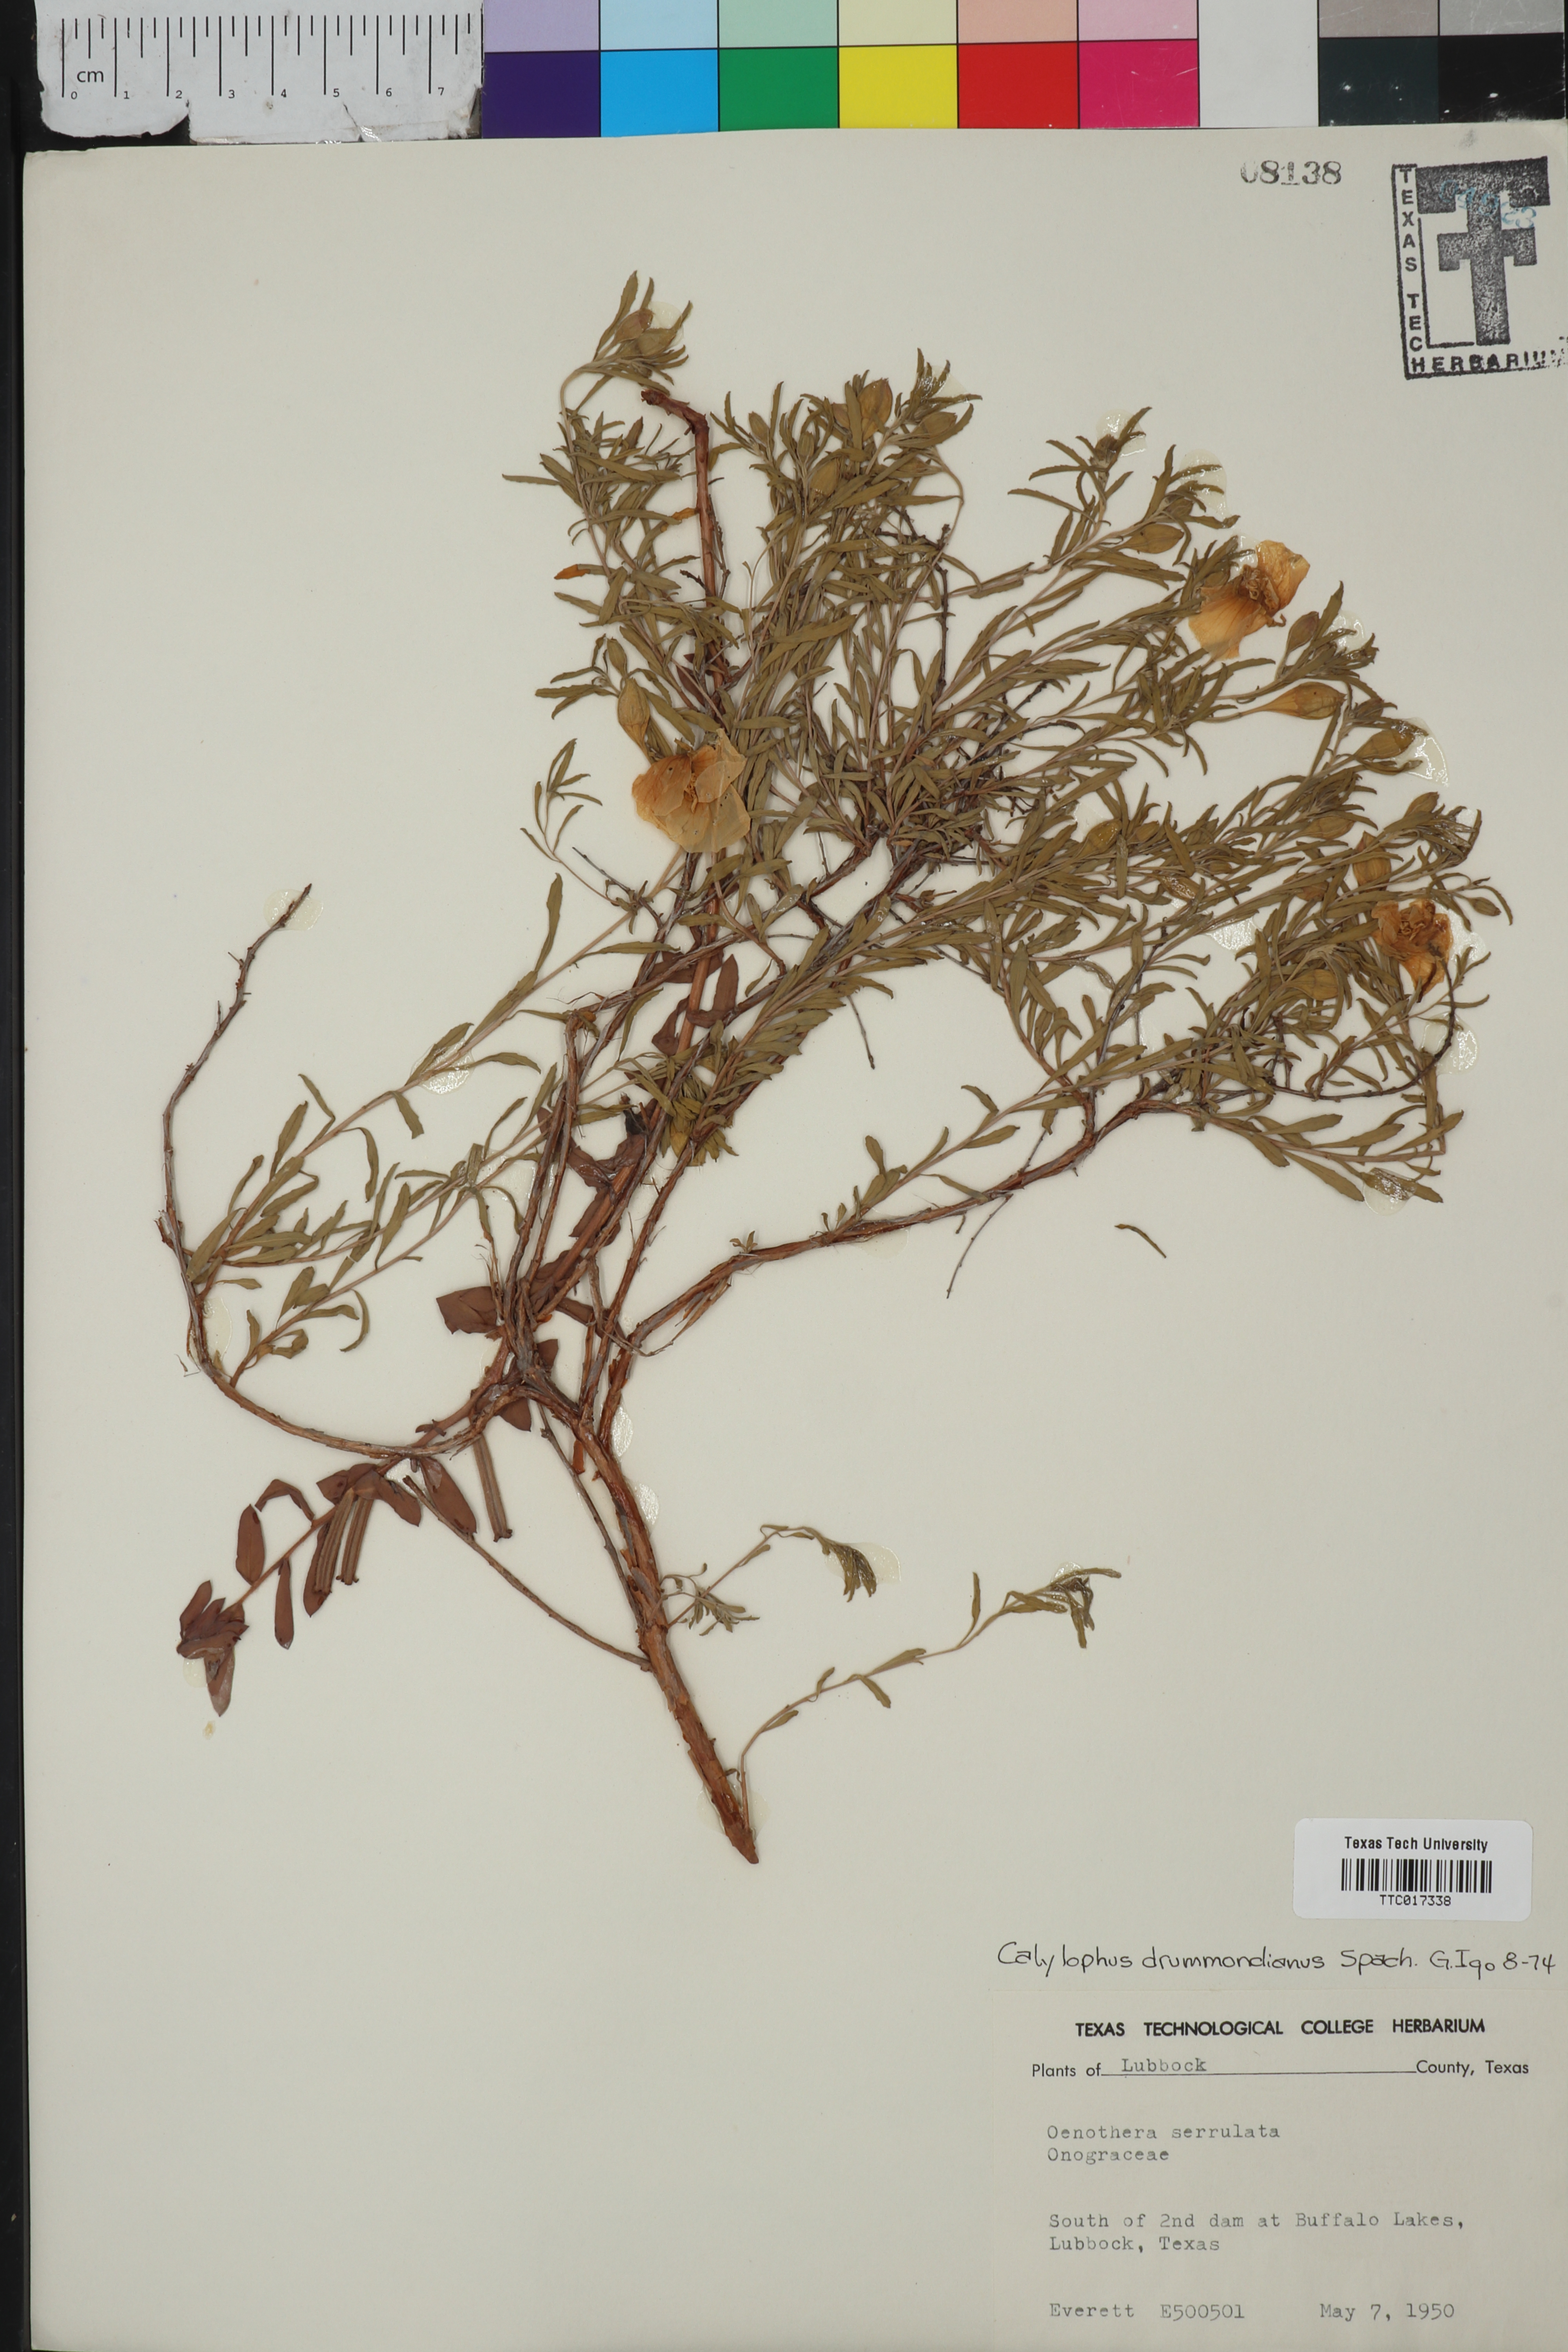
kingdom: Plantae
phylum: Tracheophyta
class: Magnoliopsida
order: Myrtales
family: Onagraceae
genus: Oenothera
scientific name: Oenothera serrulata
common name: Half-shrub calylophus
